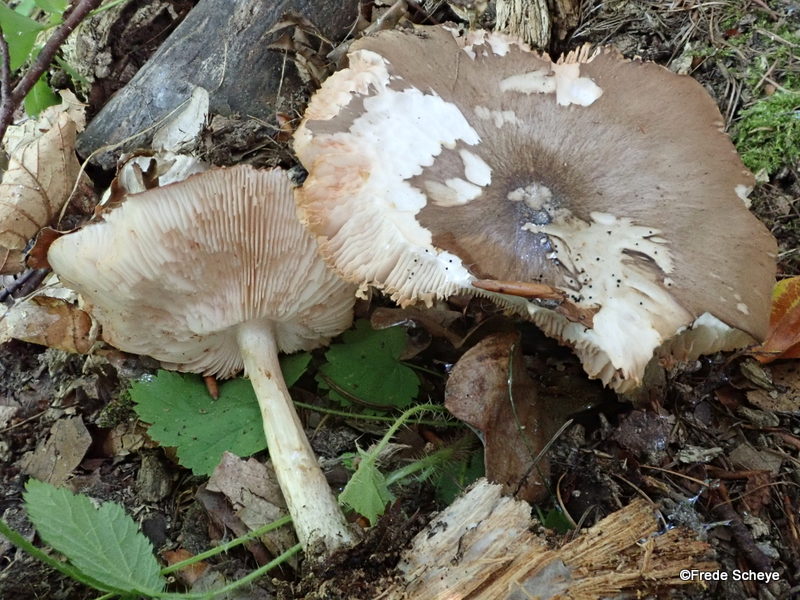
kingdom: Fungi
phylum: Basidiomycota
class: Agaricomycetes
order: Agaricales
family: Pluteaceae
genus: Pluteus
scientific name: Pluteus cervinus
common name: sodfarvet skærmhat
